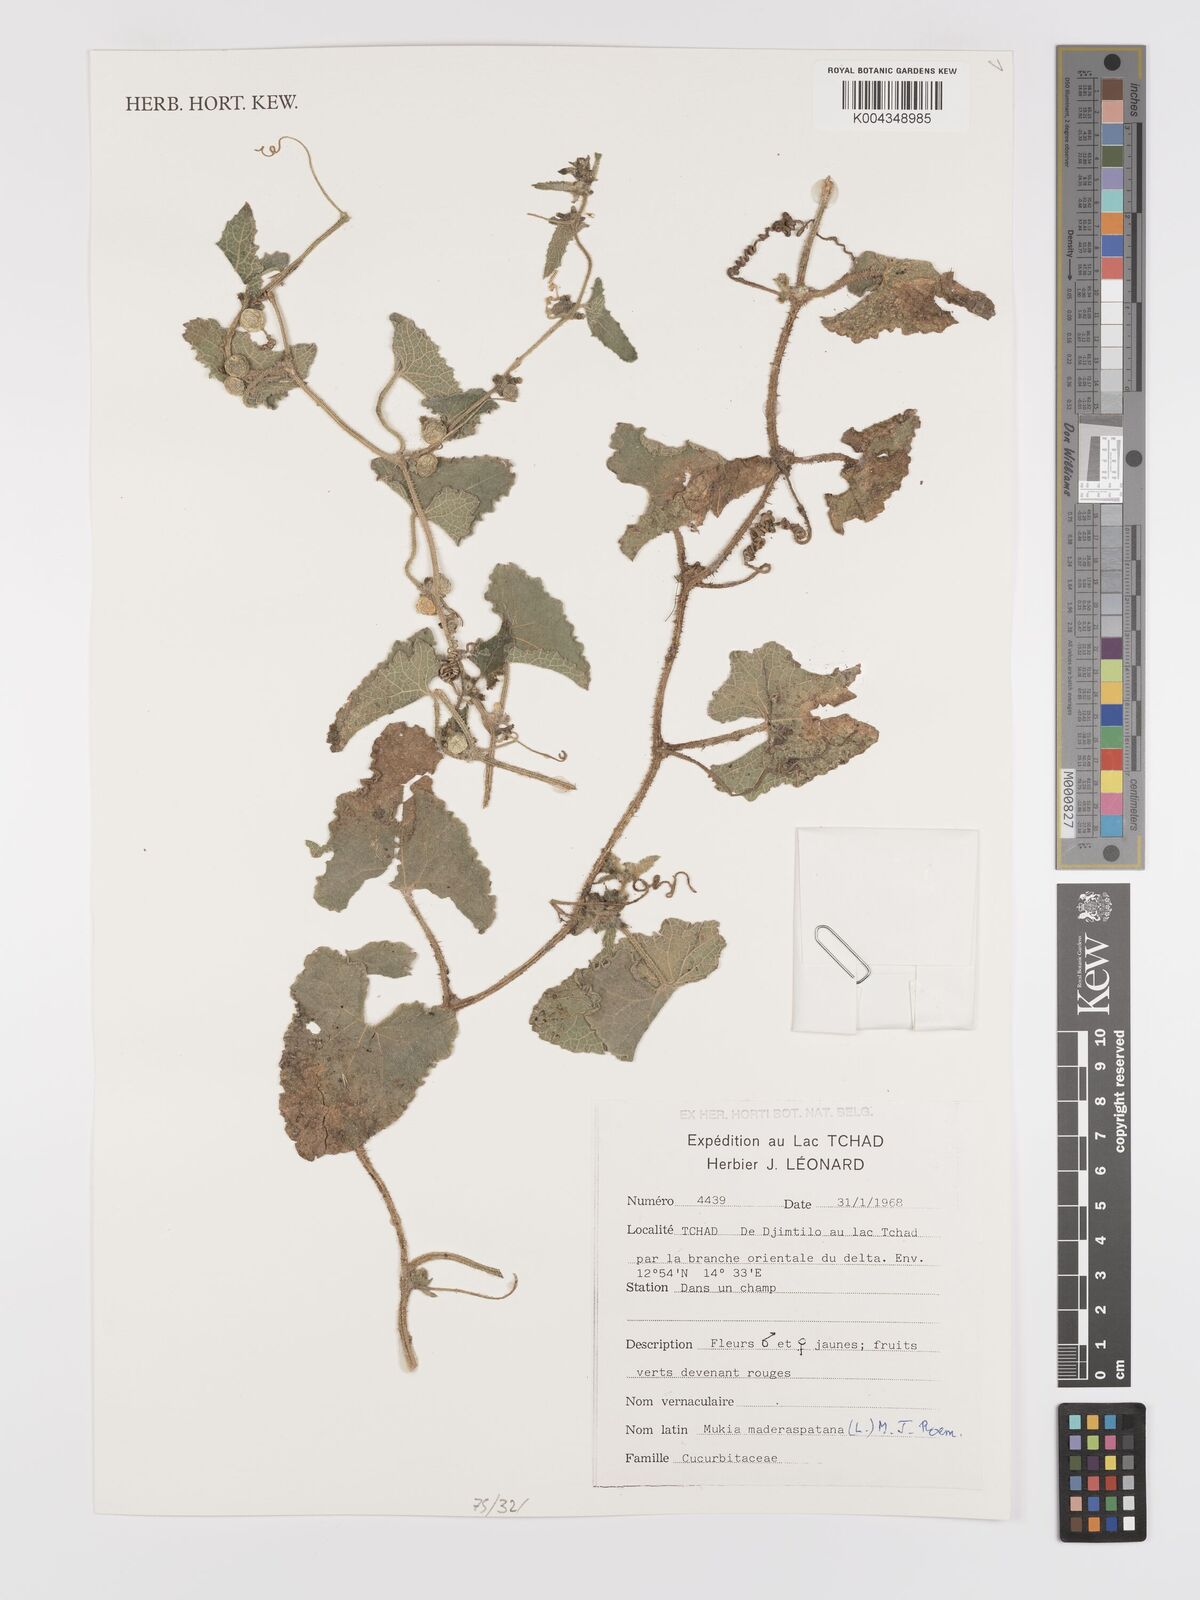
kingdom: Plantae
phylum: Tracheophyta
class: Magnoliopsida
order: Cucurbitales
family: Cucurbitaceae
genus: Cucumis
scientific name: Cucumis maderaspatanus
